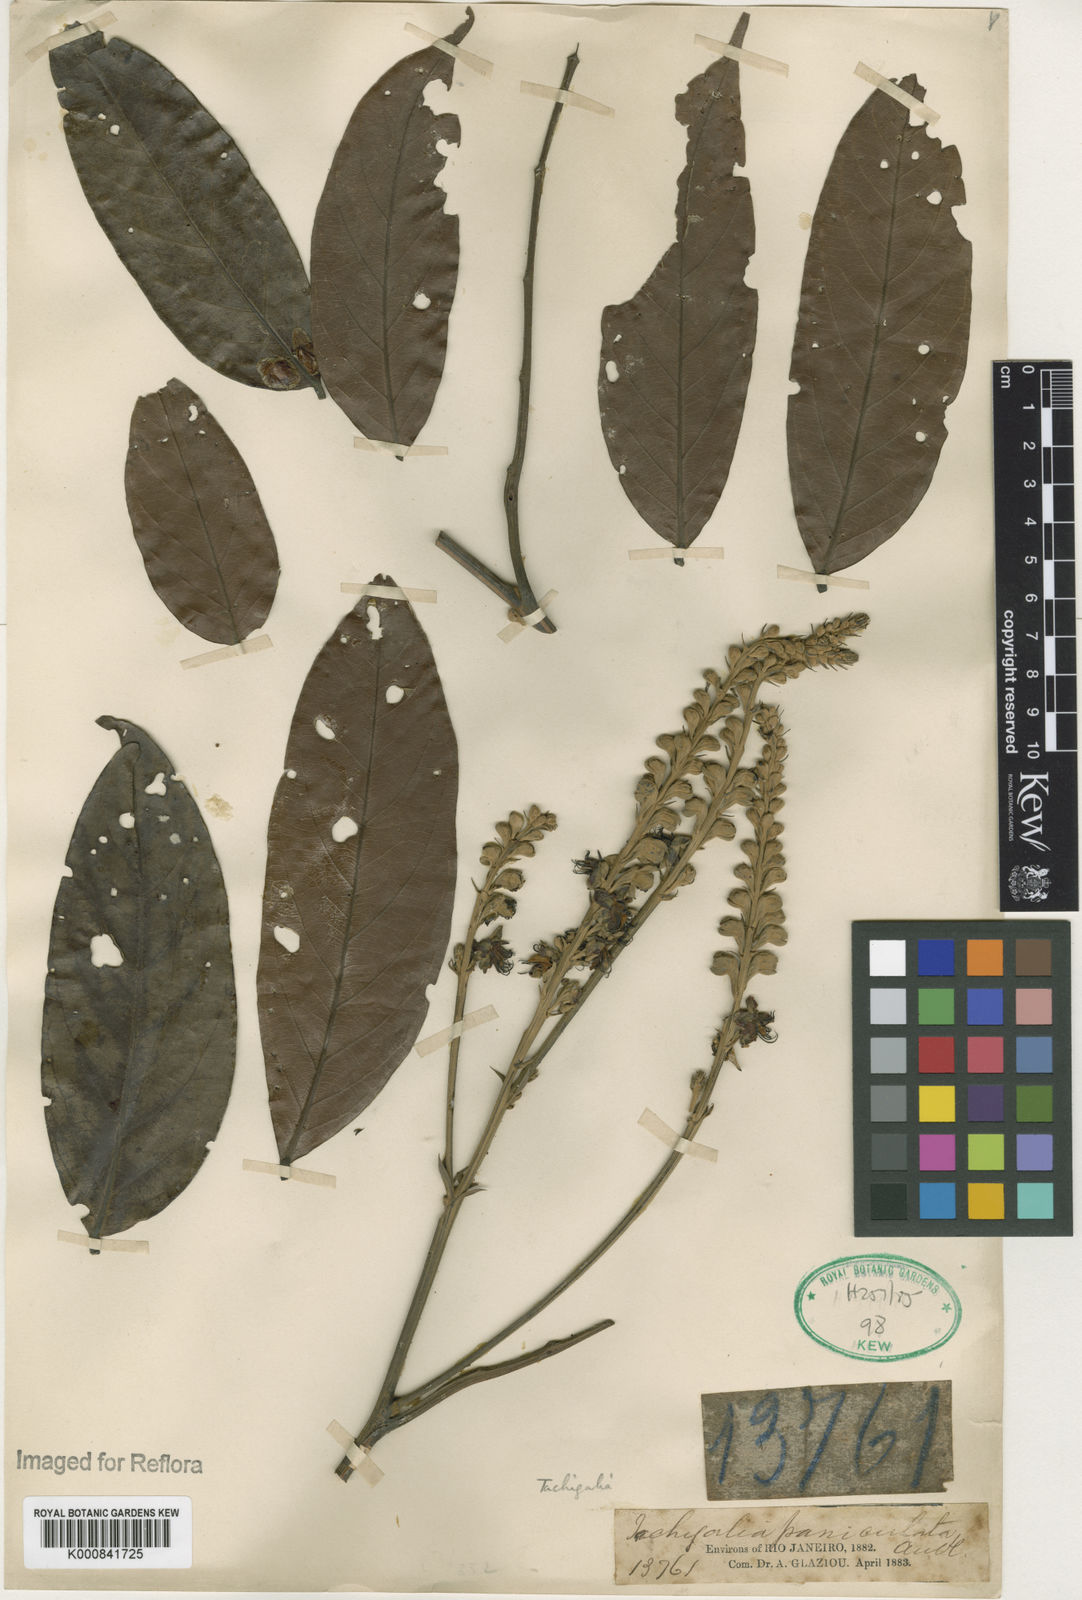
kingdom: Plantae
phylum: Tracheophyta
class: Magnoliopsida
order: Fabales
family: Fabaceae
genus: Tachigali
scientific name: Tachigali paniculata
